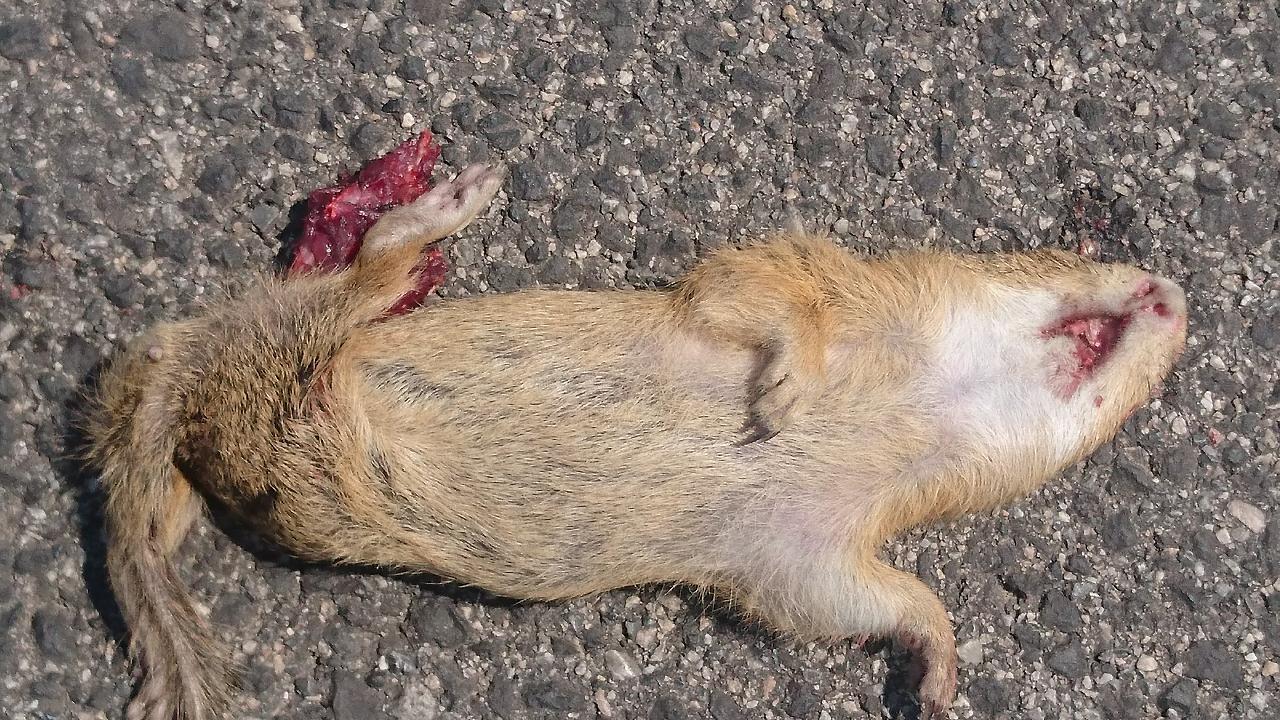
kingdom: Animalia
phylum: Chordata
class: Mammalia
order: Rodentia
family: Sciuridae
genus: Spermophilus
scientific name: Spermophilus citellus
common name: European ground squirrel
